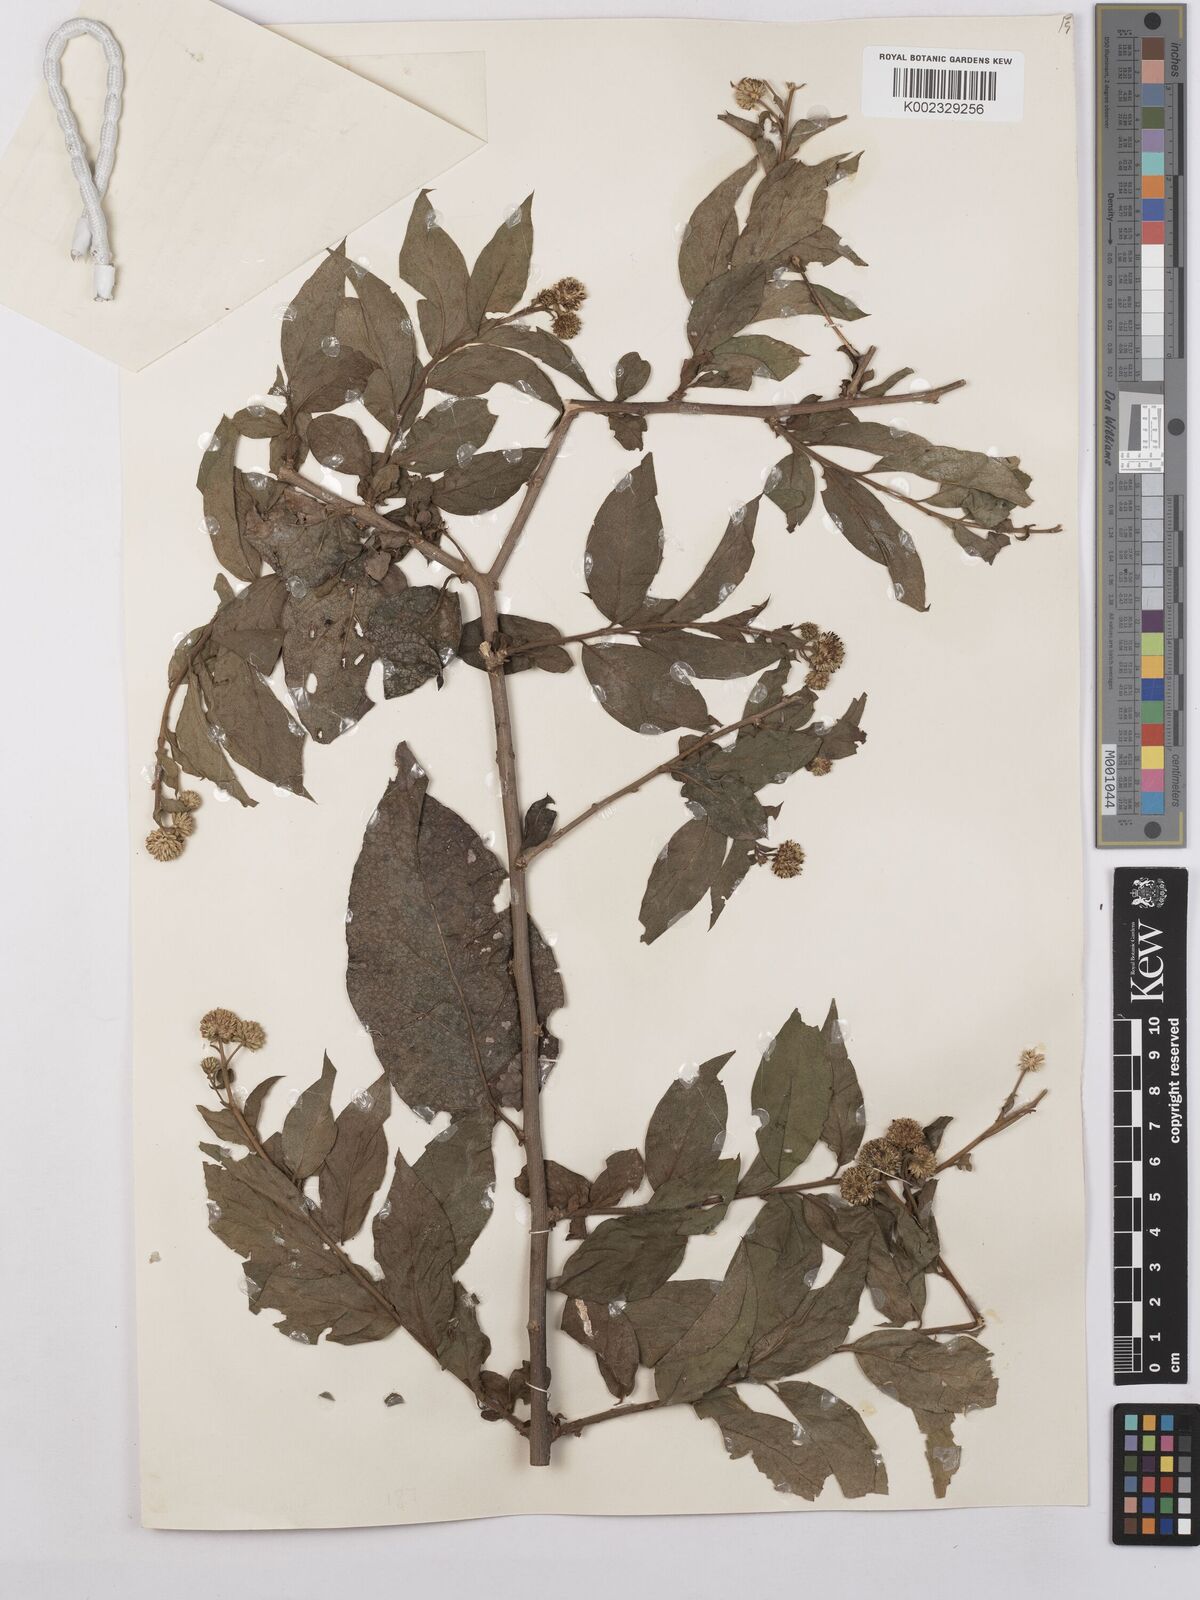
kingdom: Plantae
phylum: Tracheophyta
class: Magnoliopsida
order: Asterales
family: Asteraceae
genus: Blepharispermum
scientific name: Blepharispermum zanguebaricum
